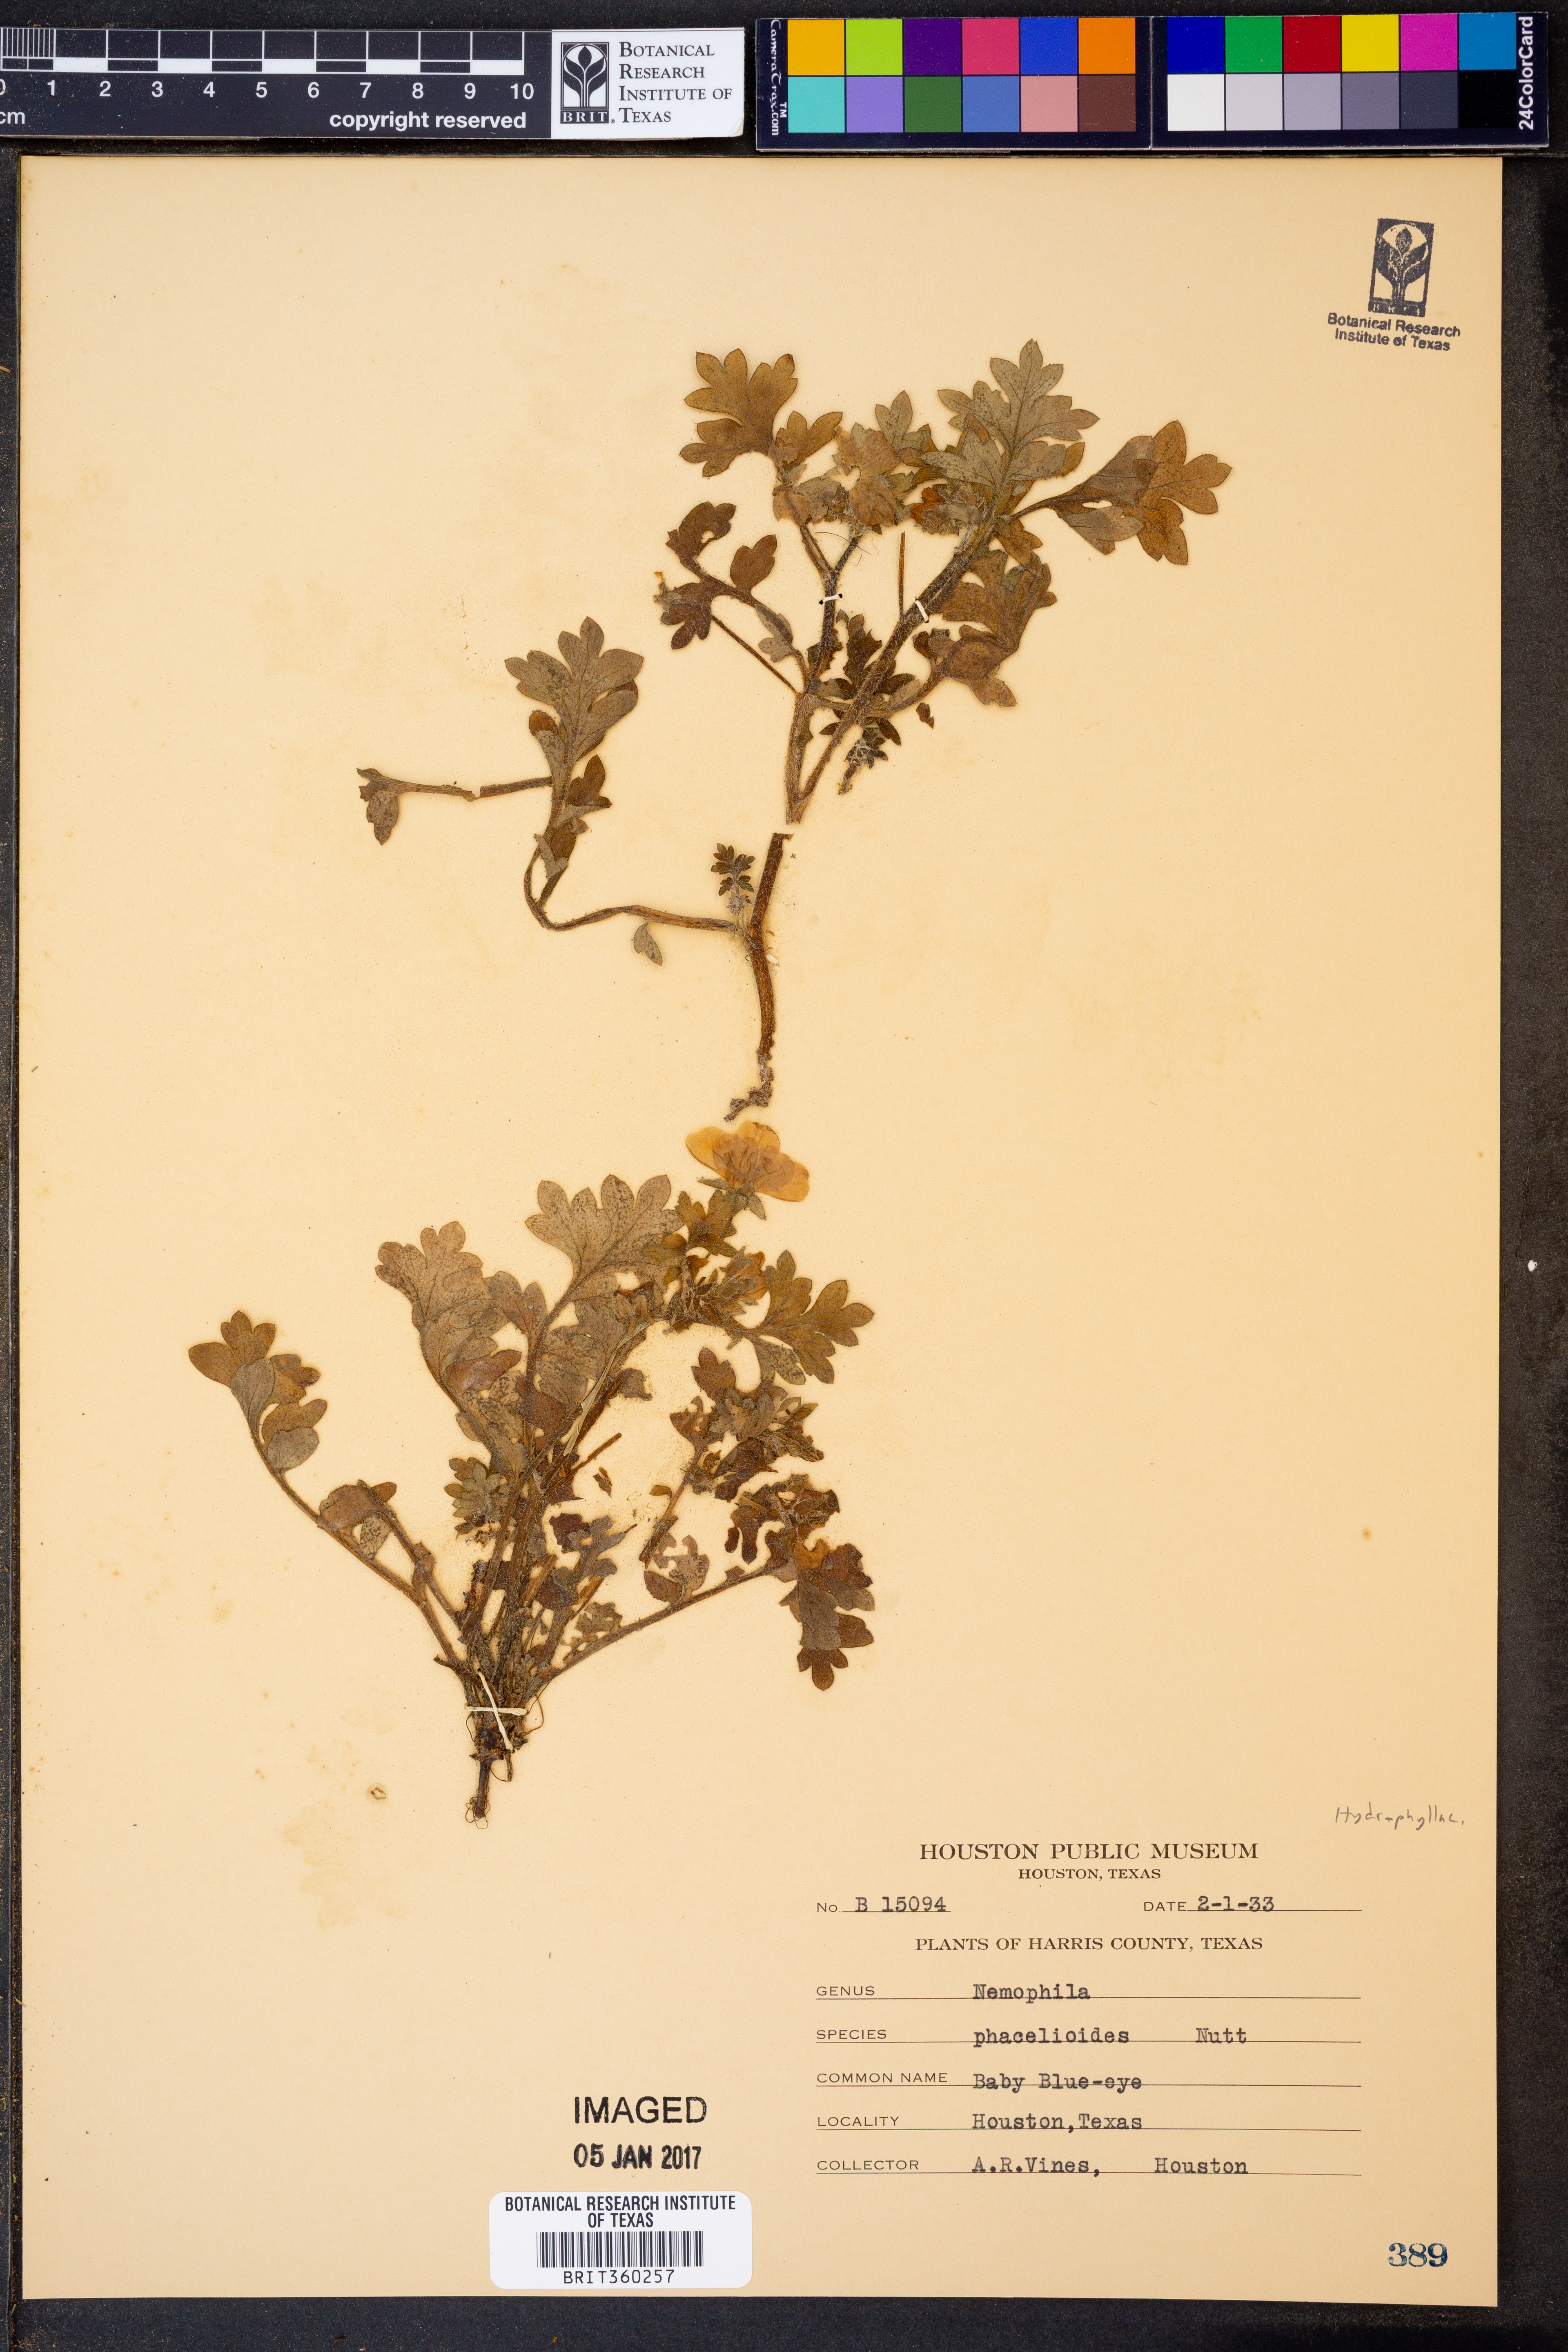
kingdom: Plantae
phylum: Tracheophyta
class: Magnoliopsida
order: Boraginales
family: Hydrophyllaceae
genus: Nemophila
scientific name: Nemophila phacelioides
